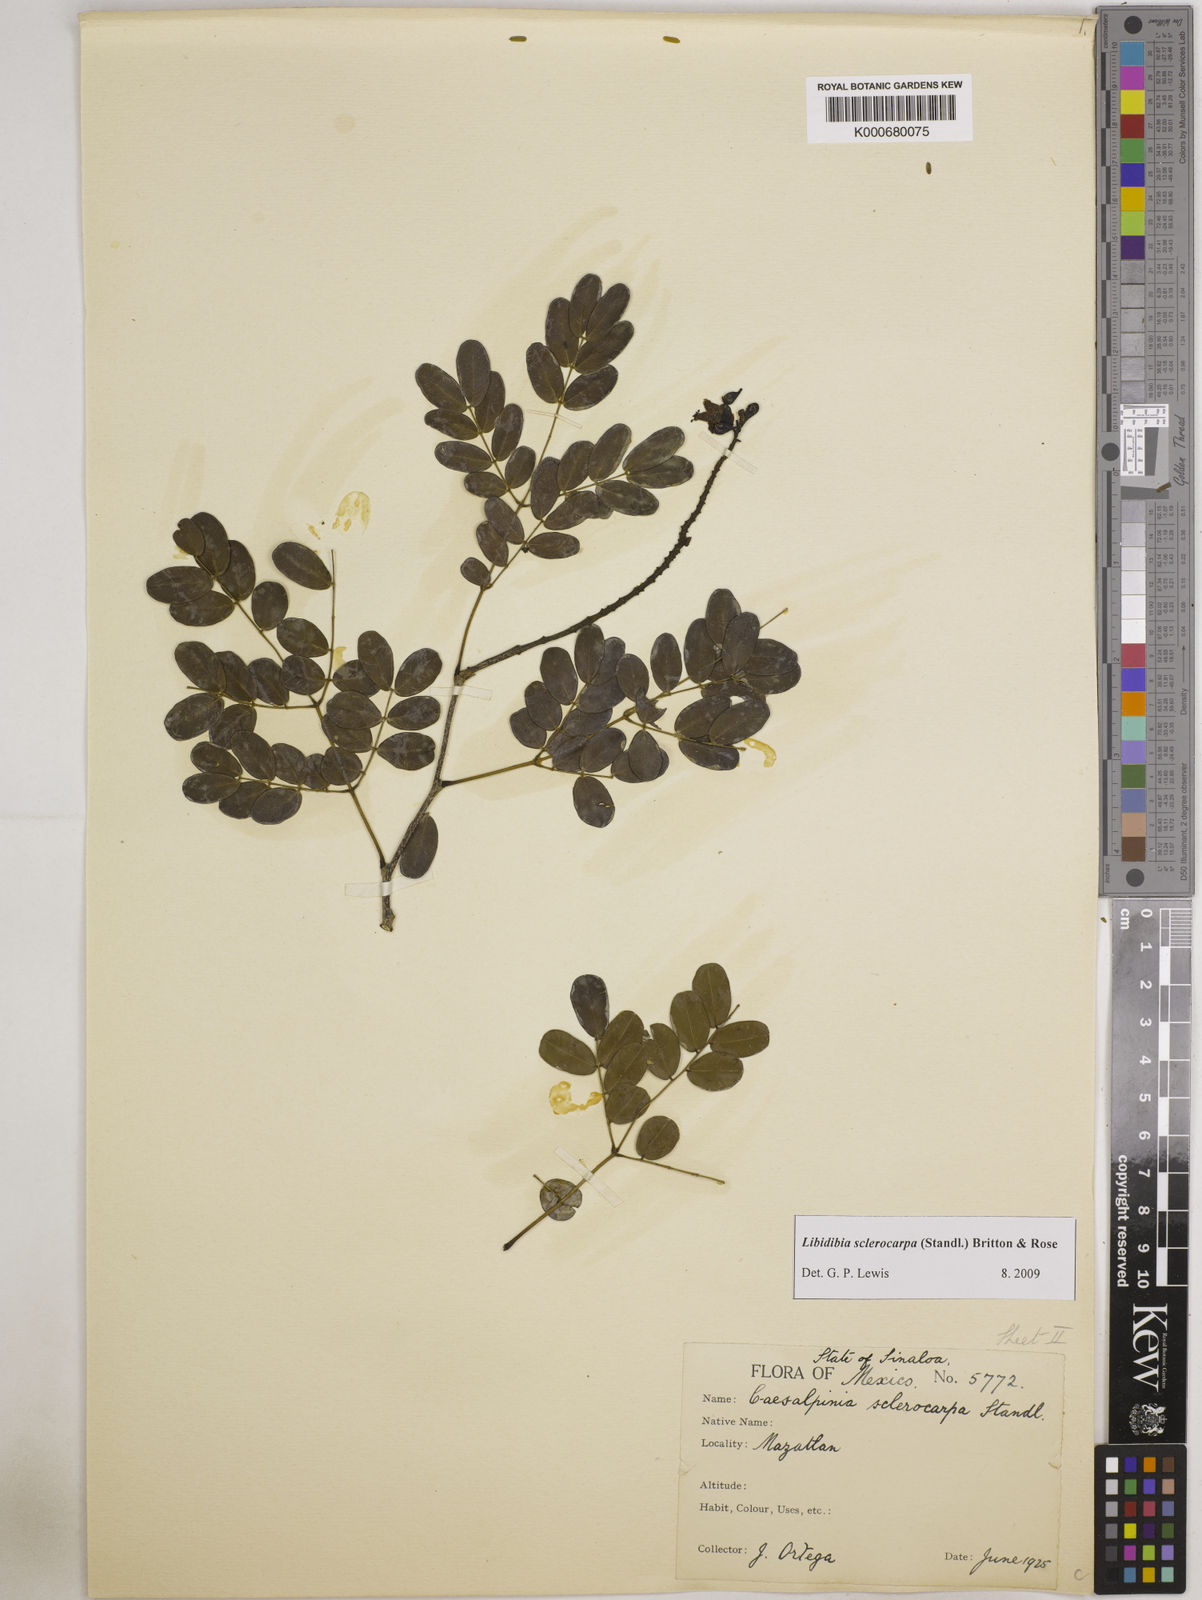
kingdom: Plantae
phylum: Tracheophyta
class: Magnoliopsida
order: Fabales
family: Fabaceae
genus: Libidibia
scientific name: Libidibia sclerocarpa
